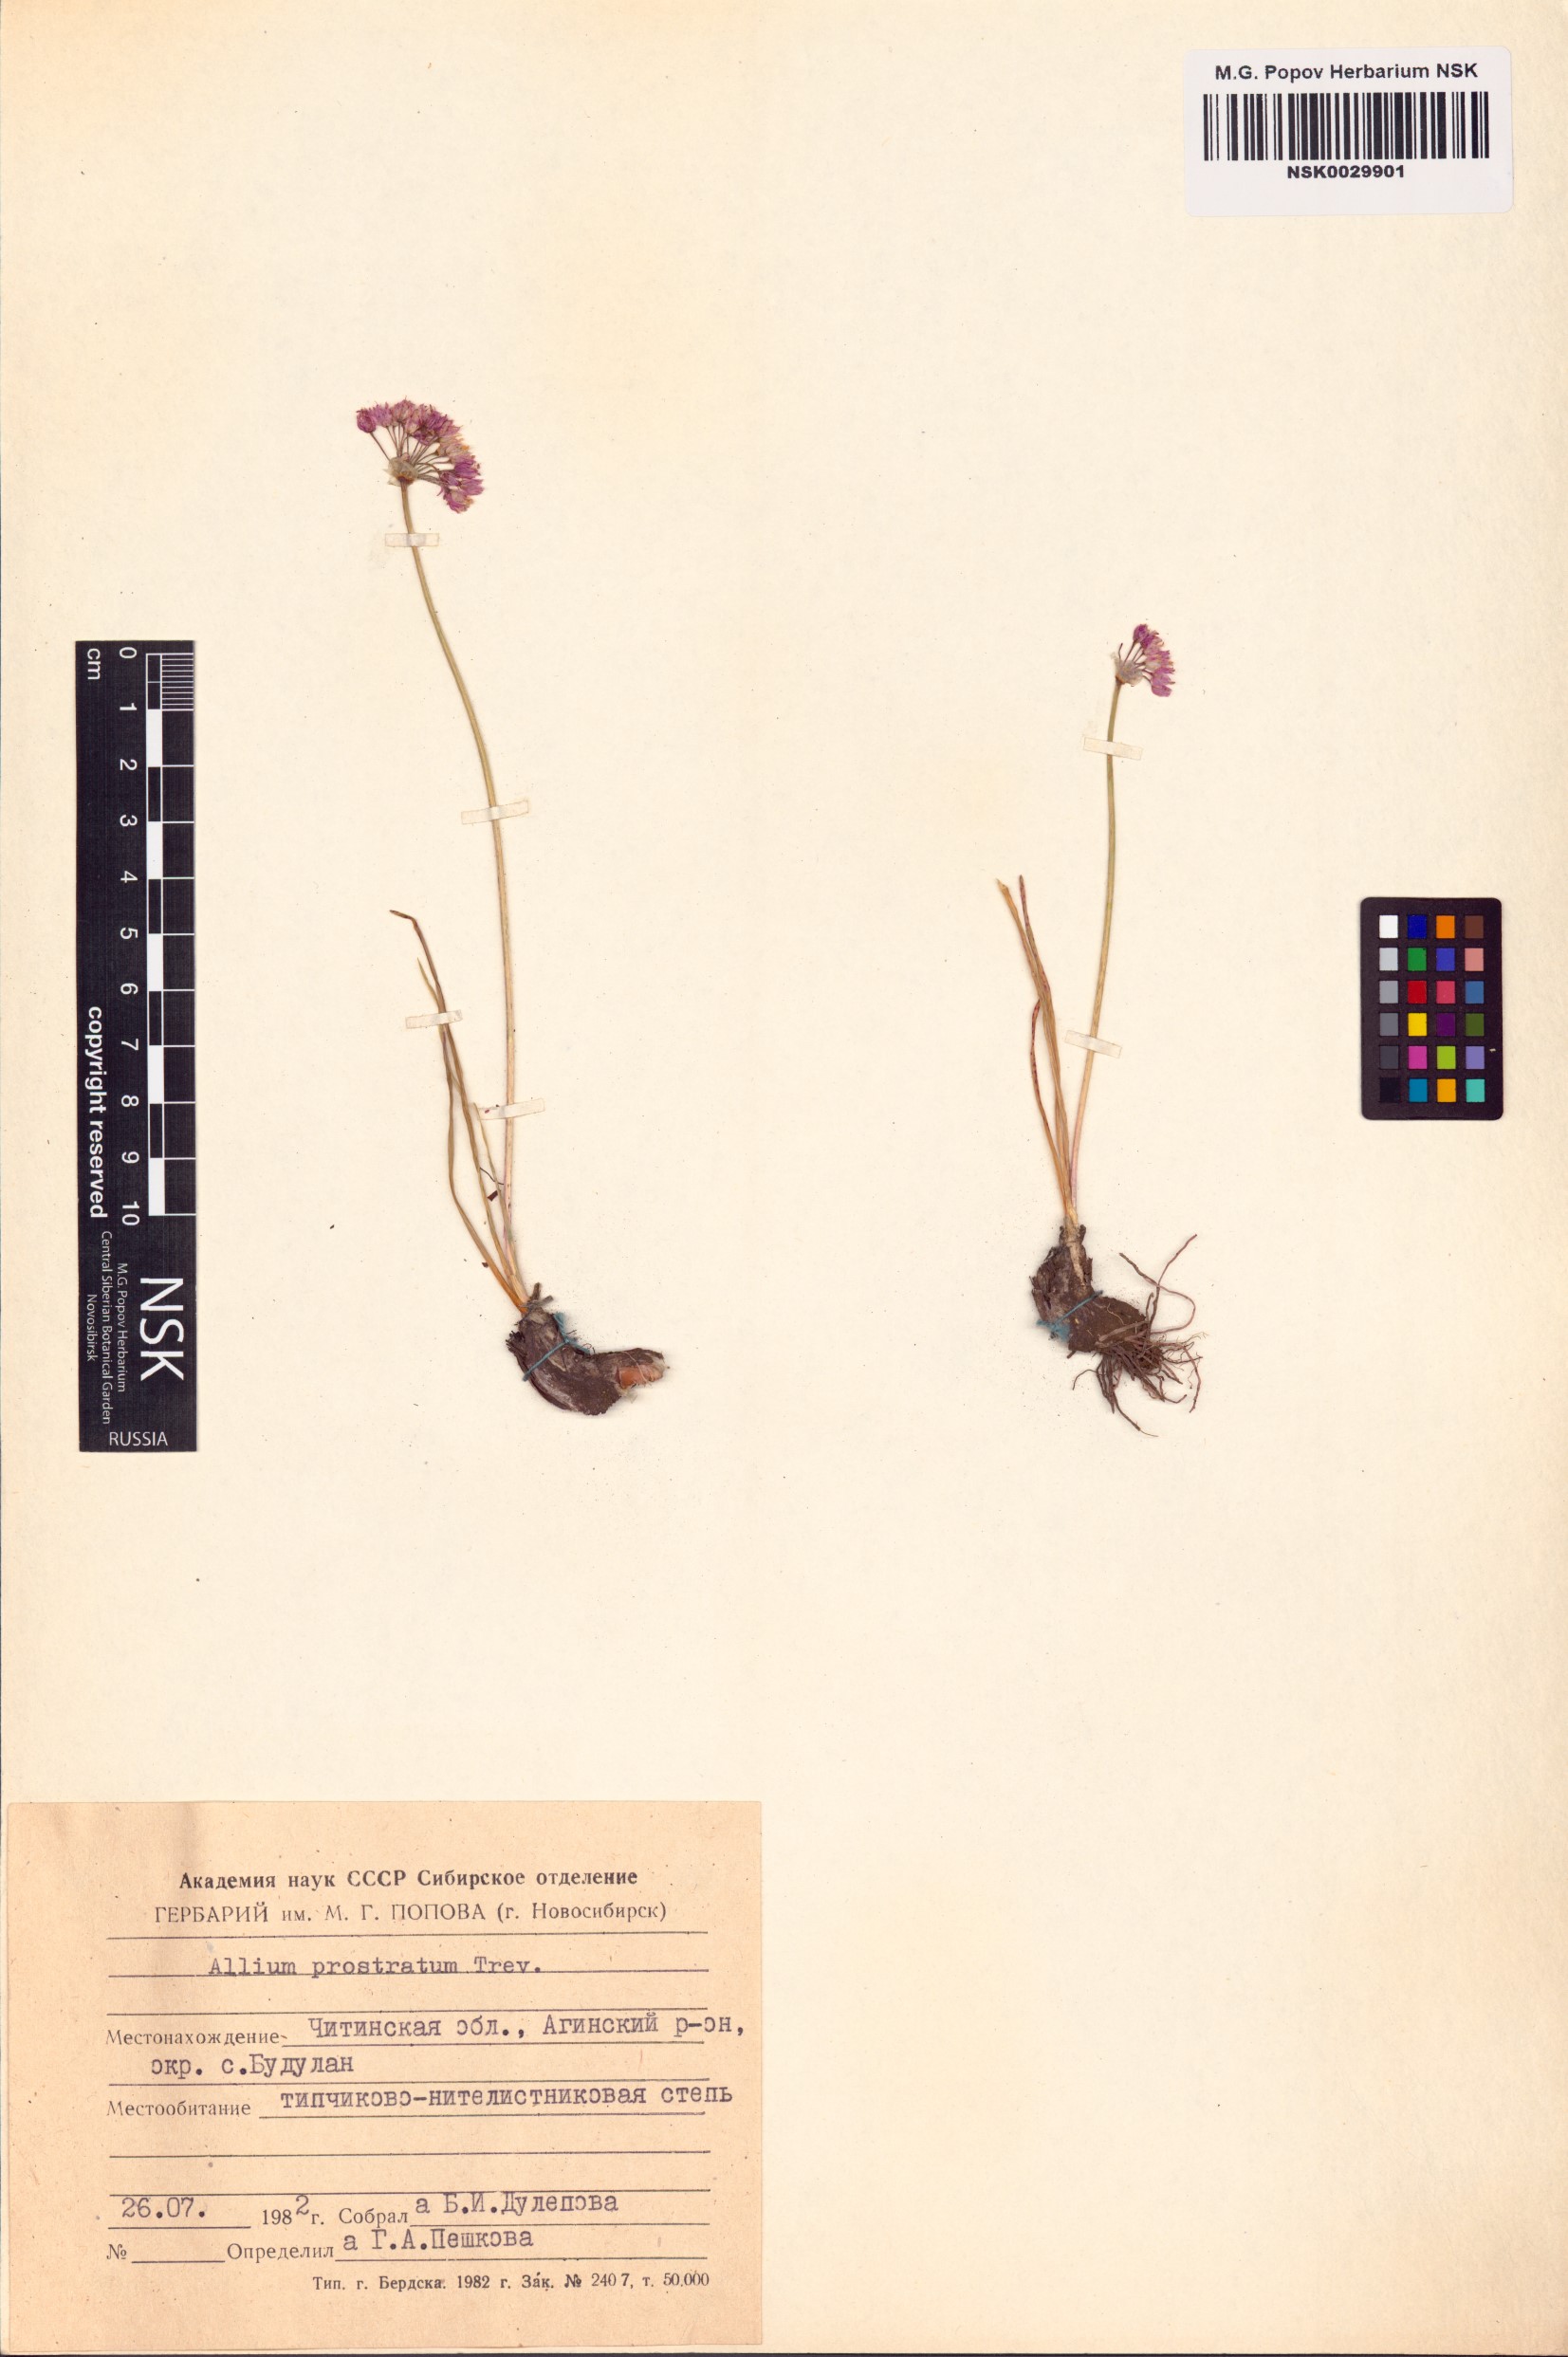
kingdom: Plantae
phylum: Tracheophyta
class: Liliopsida
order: Asparagales
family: Amaryllidaceae
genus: Allium
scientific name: Allium prostratum
